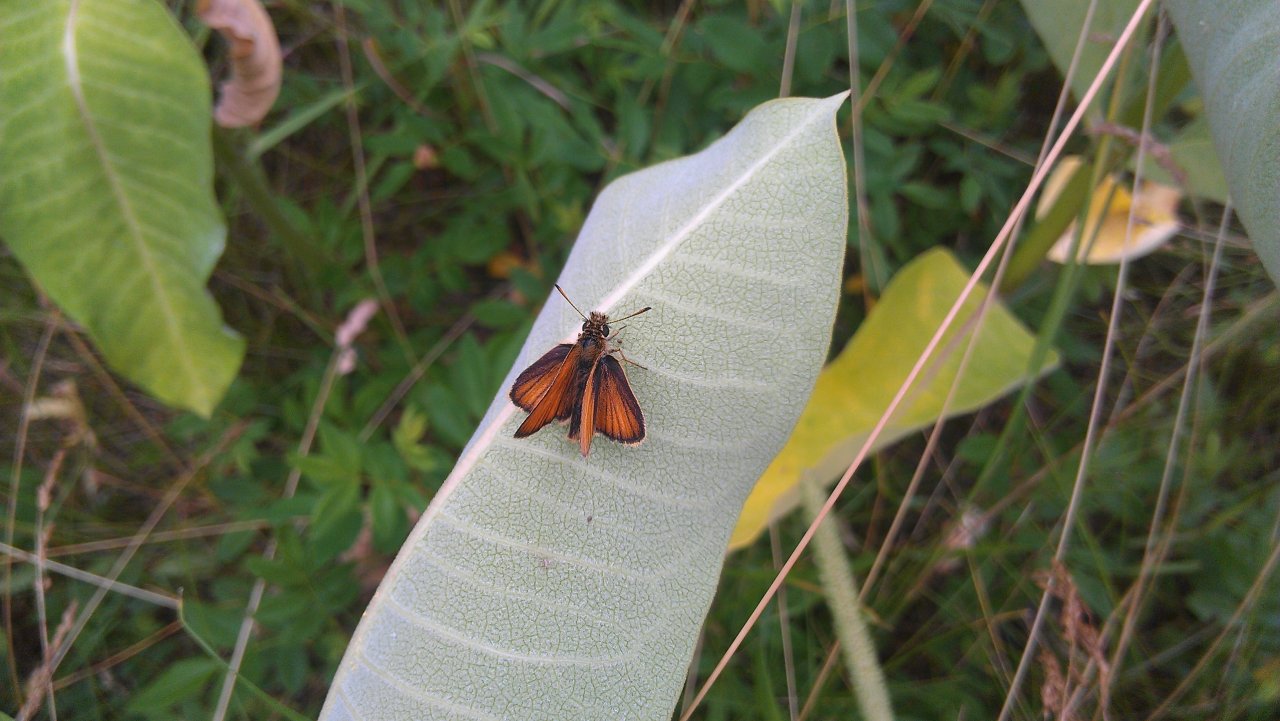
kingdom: Animalia
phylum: Arthropoda
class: Insecta
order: Lepidoptera
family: Hesperiidae
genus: Thymelicus
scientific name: Thymelicus lineola
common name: European Skipper
